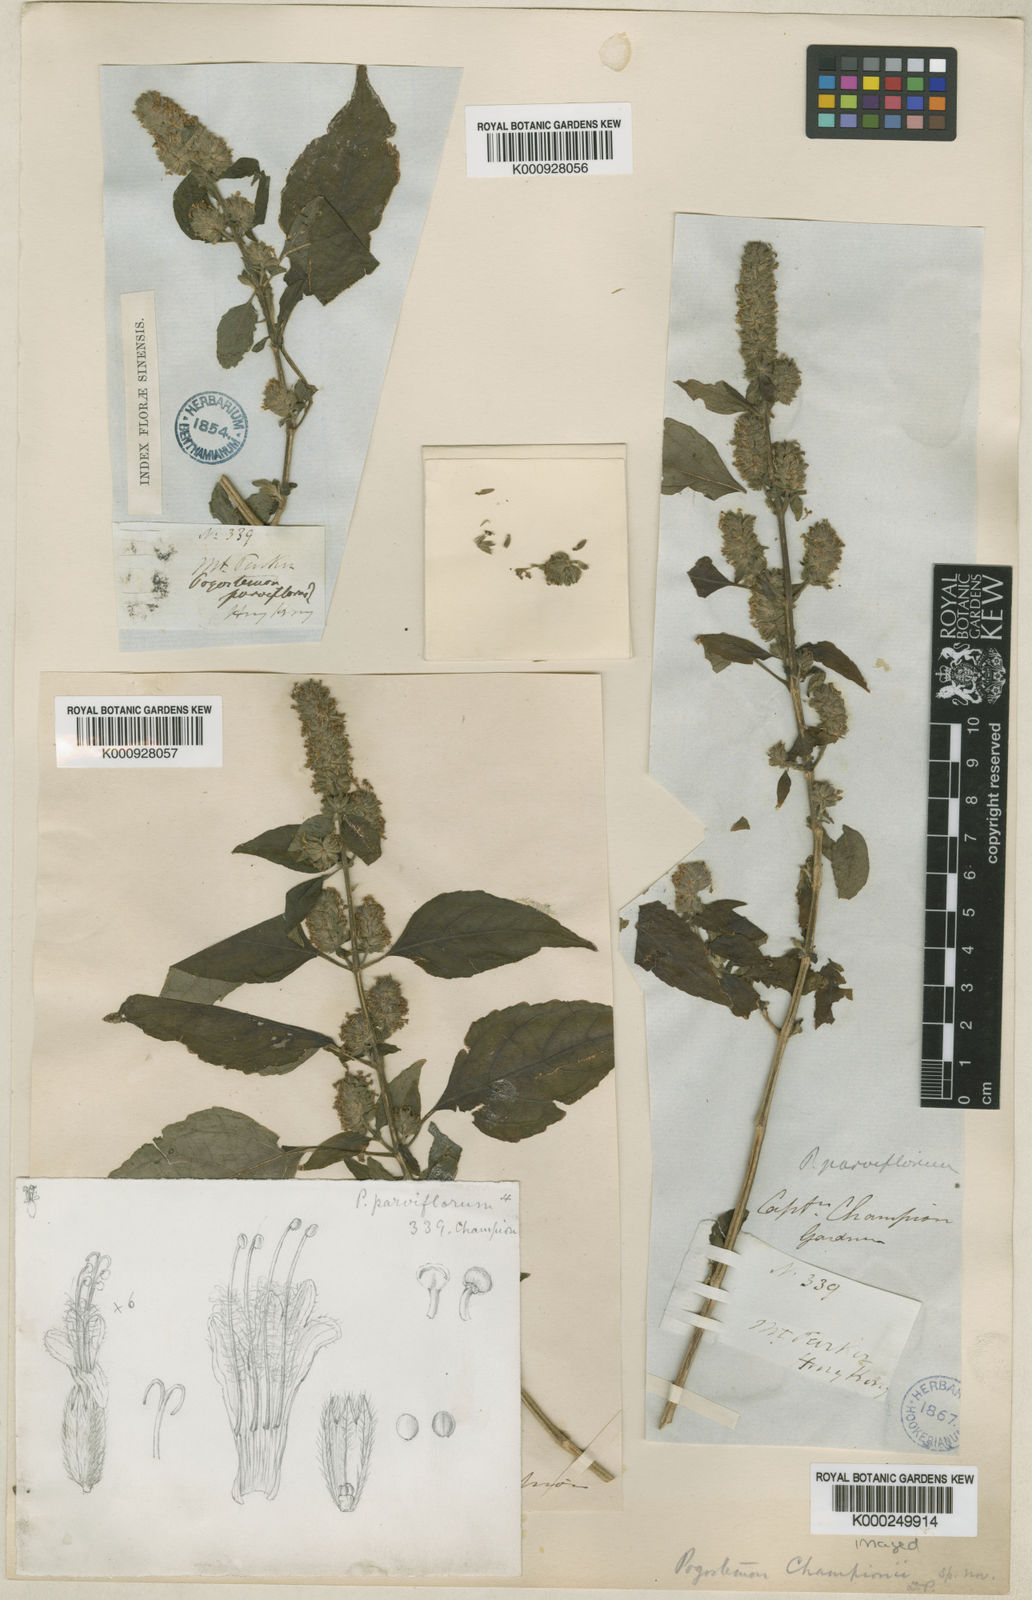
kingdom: Plantae
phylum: Tracheophyta
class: Magnoliopsida
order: Lamiales
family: Lamiaceae
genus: Pogostemon
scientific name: Pogostemon parviflorus
